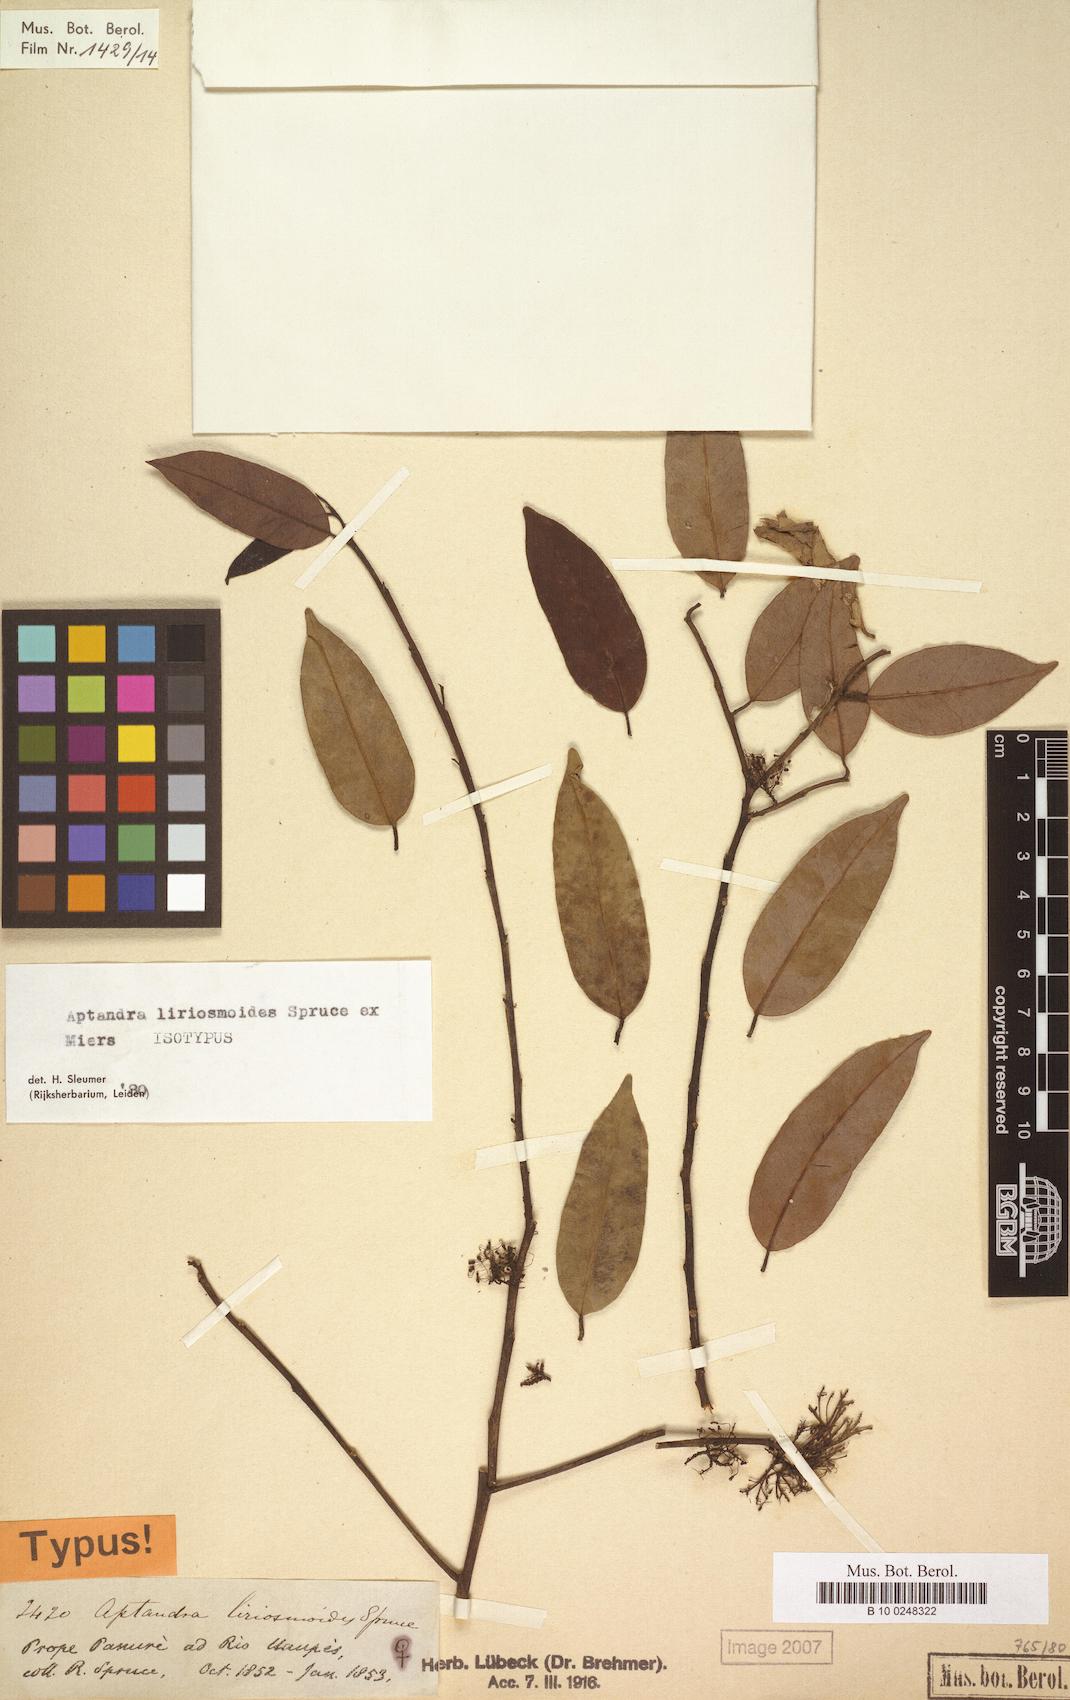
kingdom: Plantae
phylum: Tracheophyta
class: Magnoliopsida
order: Santalales
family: Aptandraceae
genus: Aptandra
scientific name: Aptandra liriosmoides
